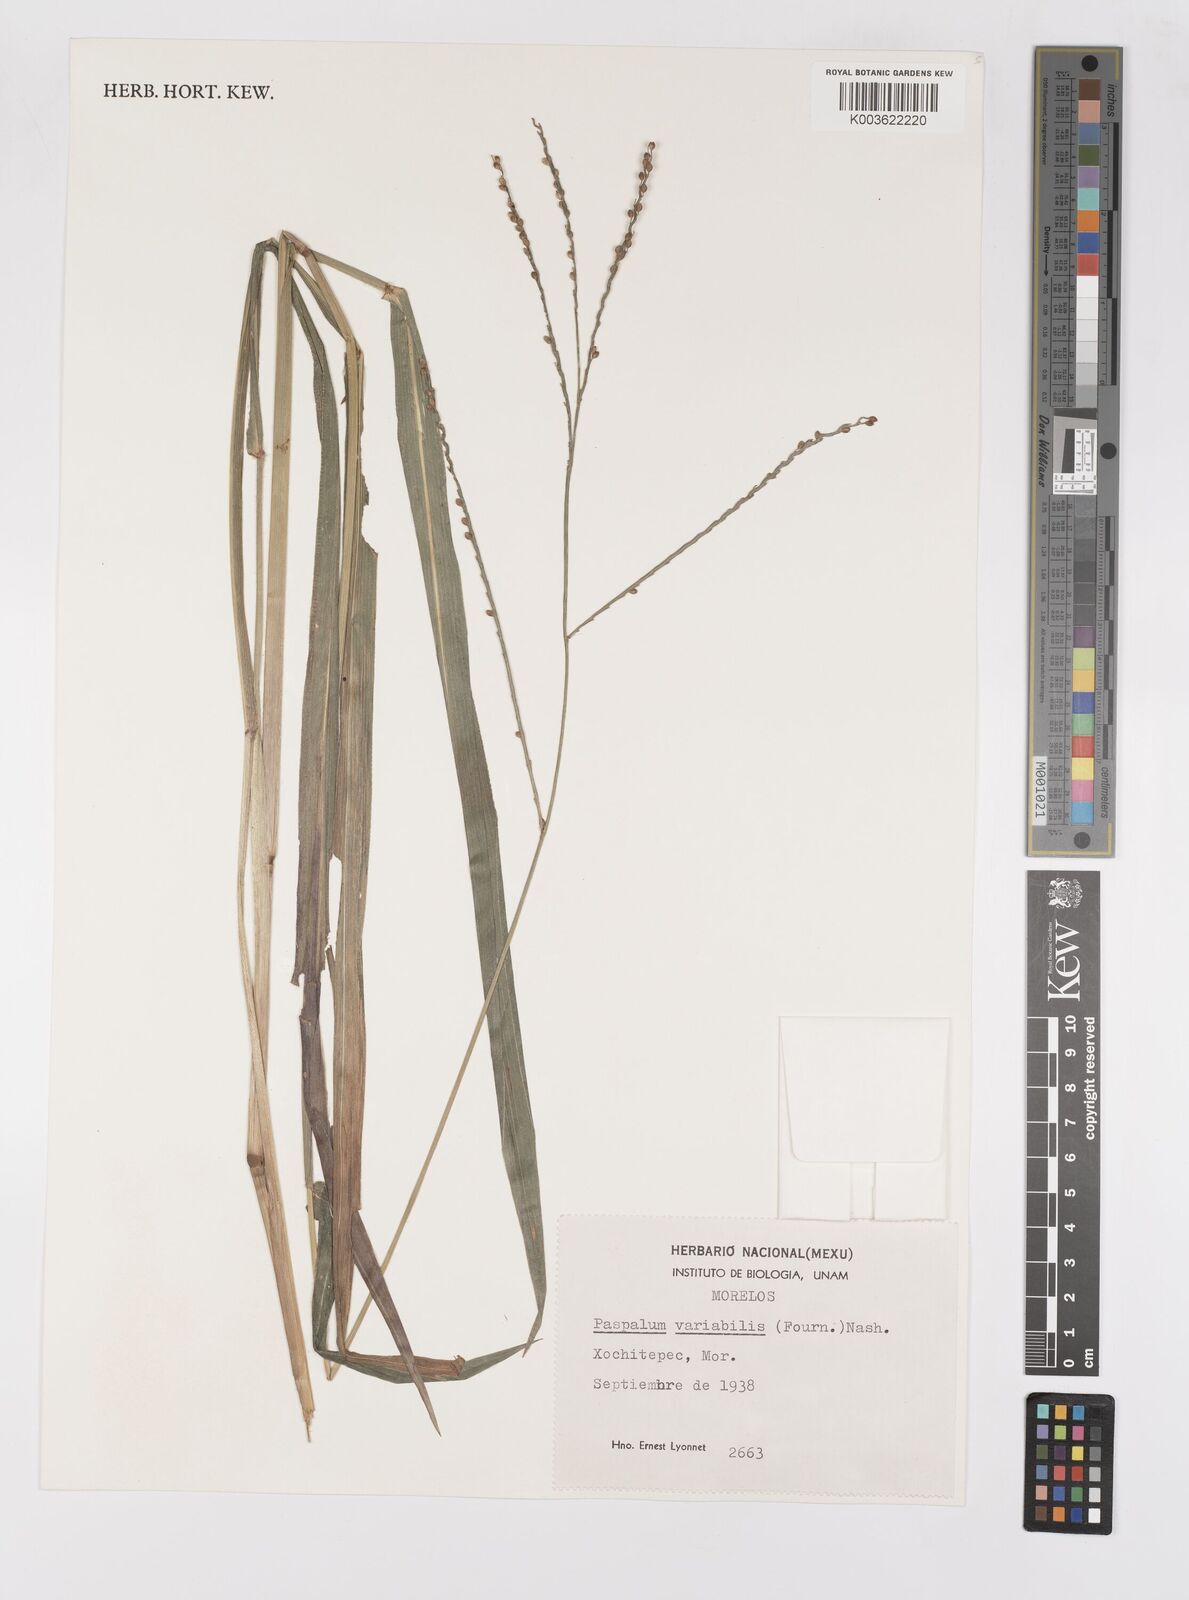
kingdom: Plantae
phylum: Tracheophyta
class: Liliopsida
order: Poales
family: Poaceae
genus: Paspalum
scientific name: Paspalum variabile
